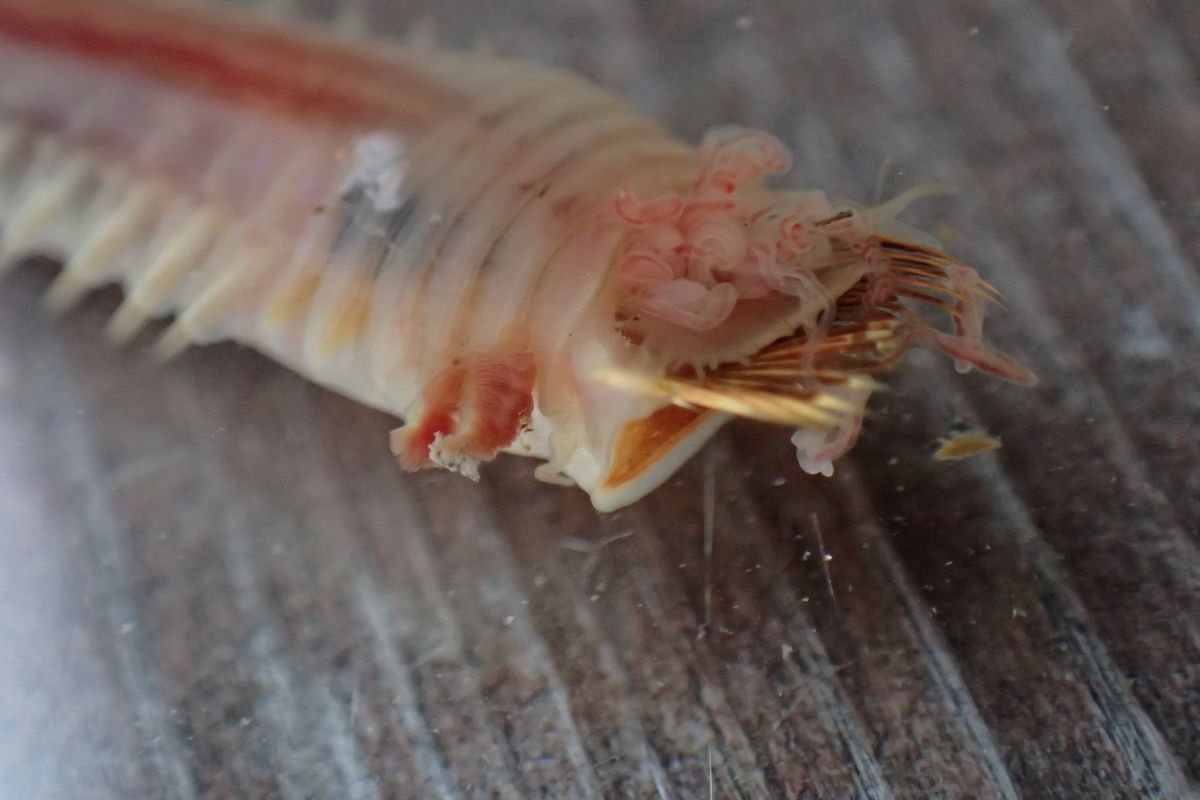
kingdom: Animalia
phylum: Annelida
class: Polychaeta
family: Trichobranchidae
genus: Terebellides
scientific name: Terebellides stroemii
